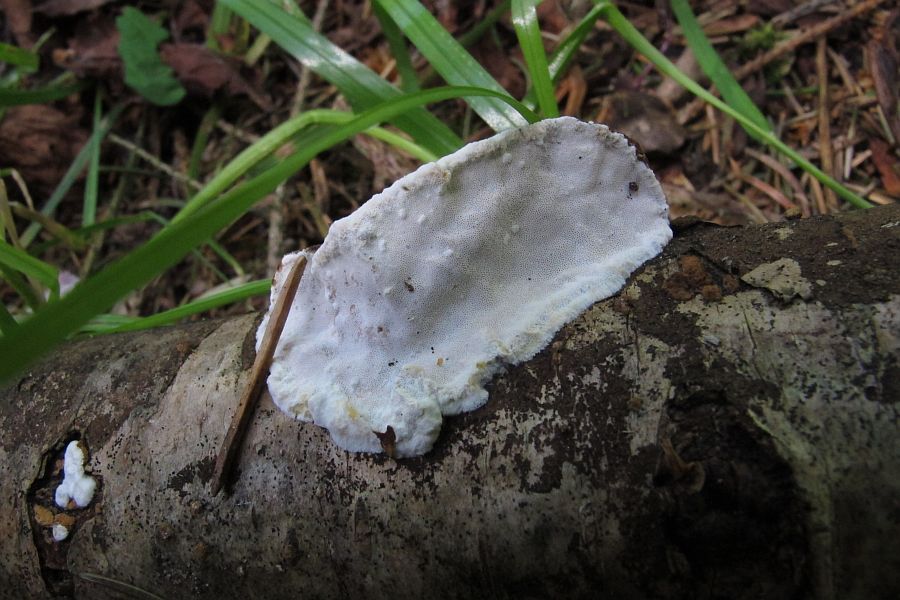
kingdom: Fungi
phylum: Basidiomycota
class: Agaricomycetes
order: Polyporales
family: Incrustoporiaceae
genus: Skeletocutis
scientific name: Skeletocutis nemoralis
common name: stor krystalporesvamp
